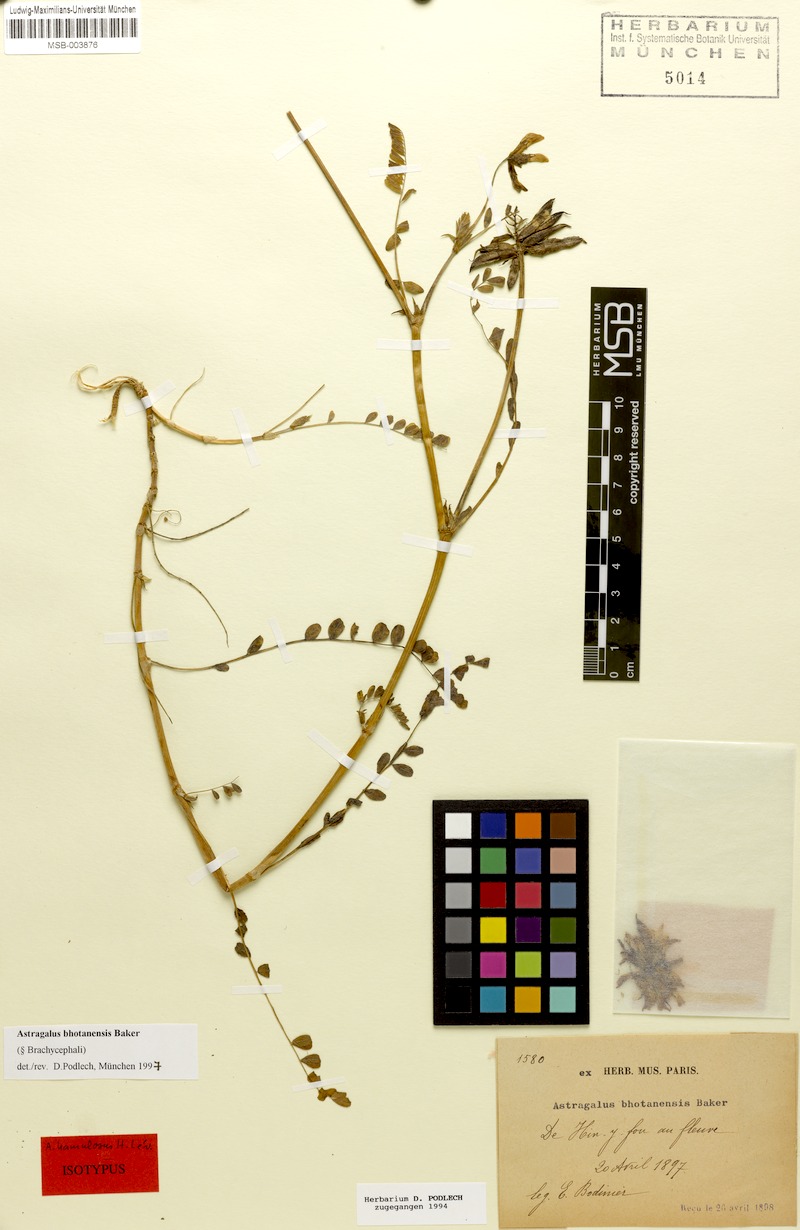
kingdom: Plantae
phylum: Tracheophyta
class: Magnoliopsida
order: Fabales
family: Fabaceae
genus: Astragalus
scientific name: Astragalus bhotanensis
